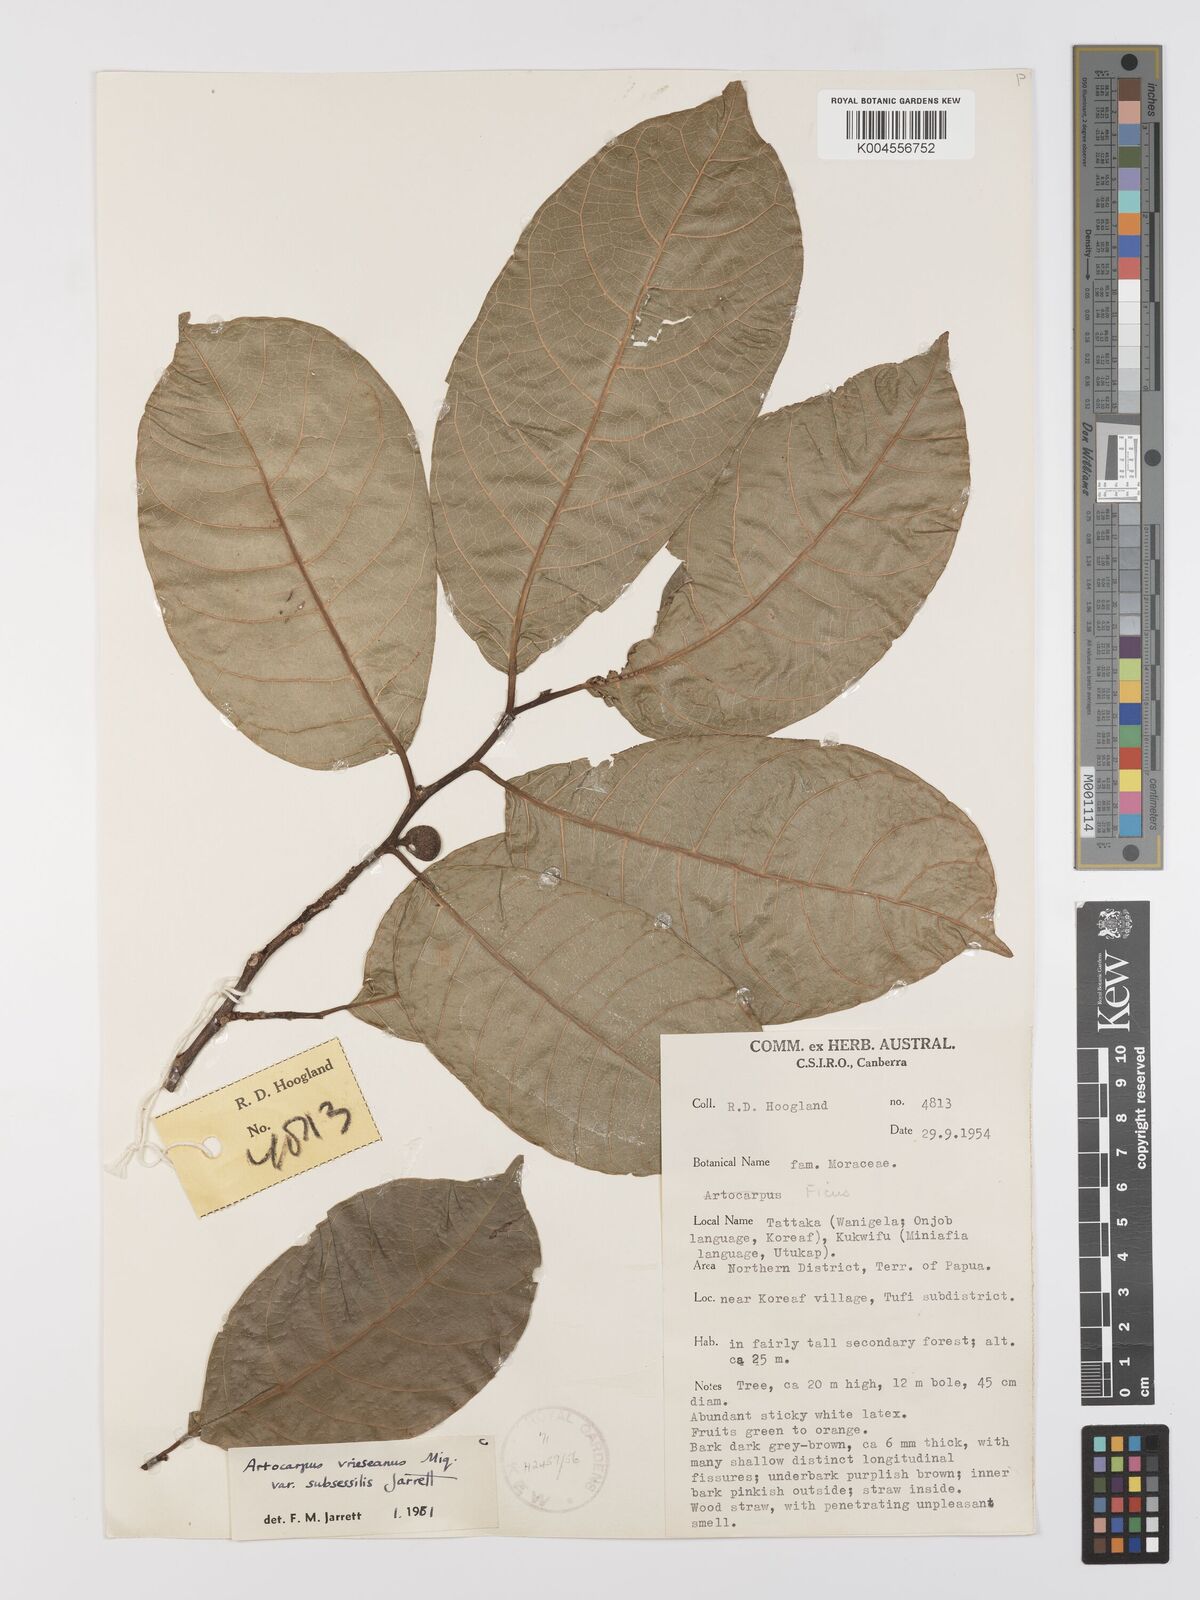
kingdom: Plantae
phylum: Tracheophyta
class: Magnoliopsida
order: Rosales
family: Moraceae
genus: Artocarpus
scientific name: Artocarpus vrieseanus
